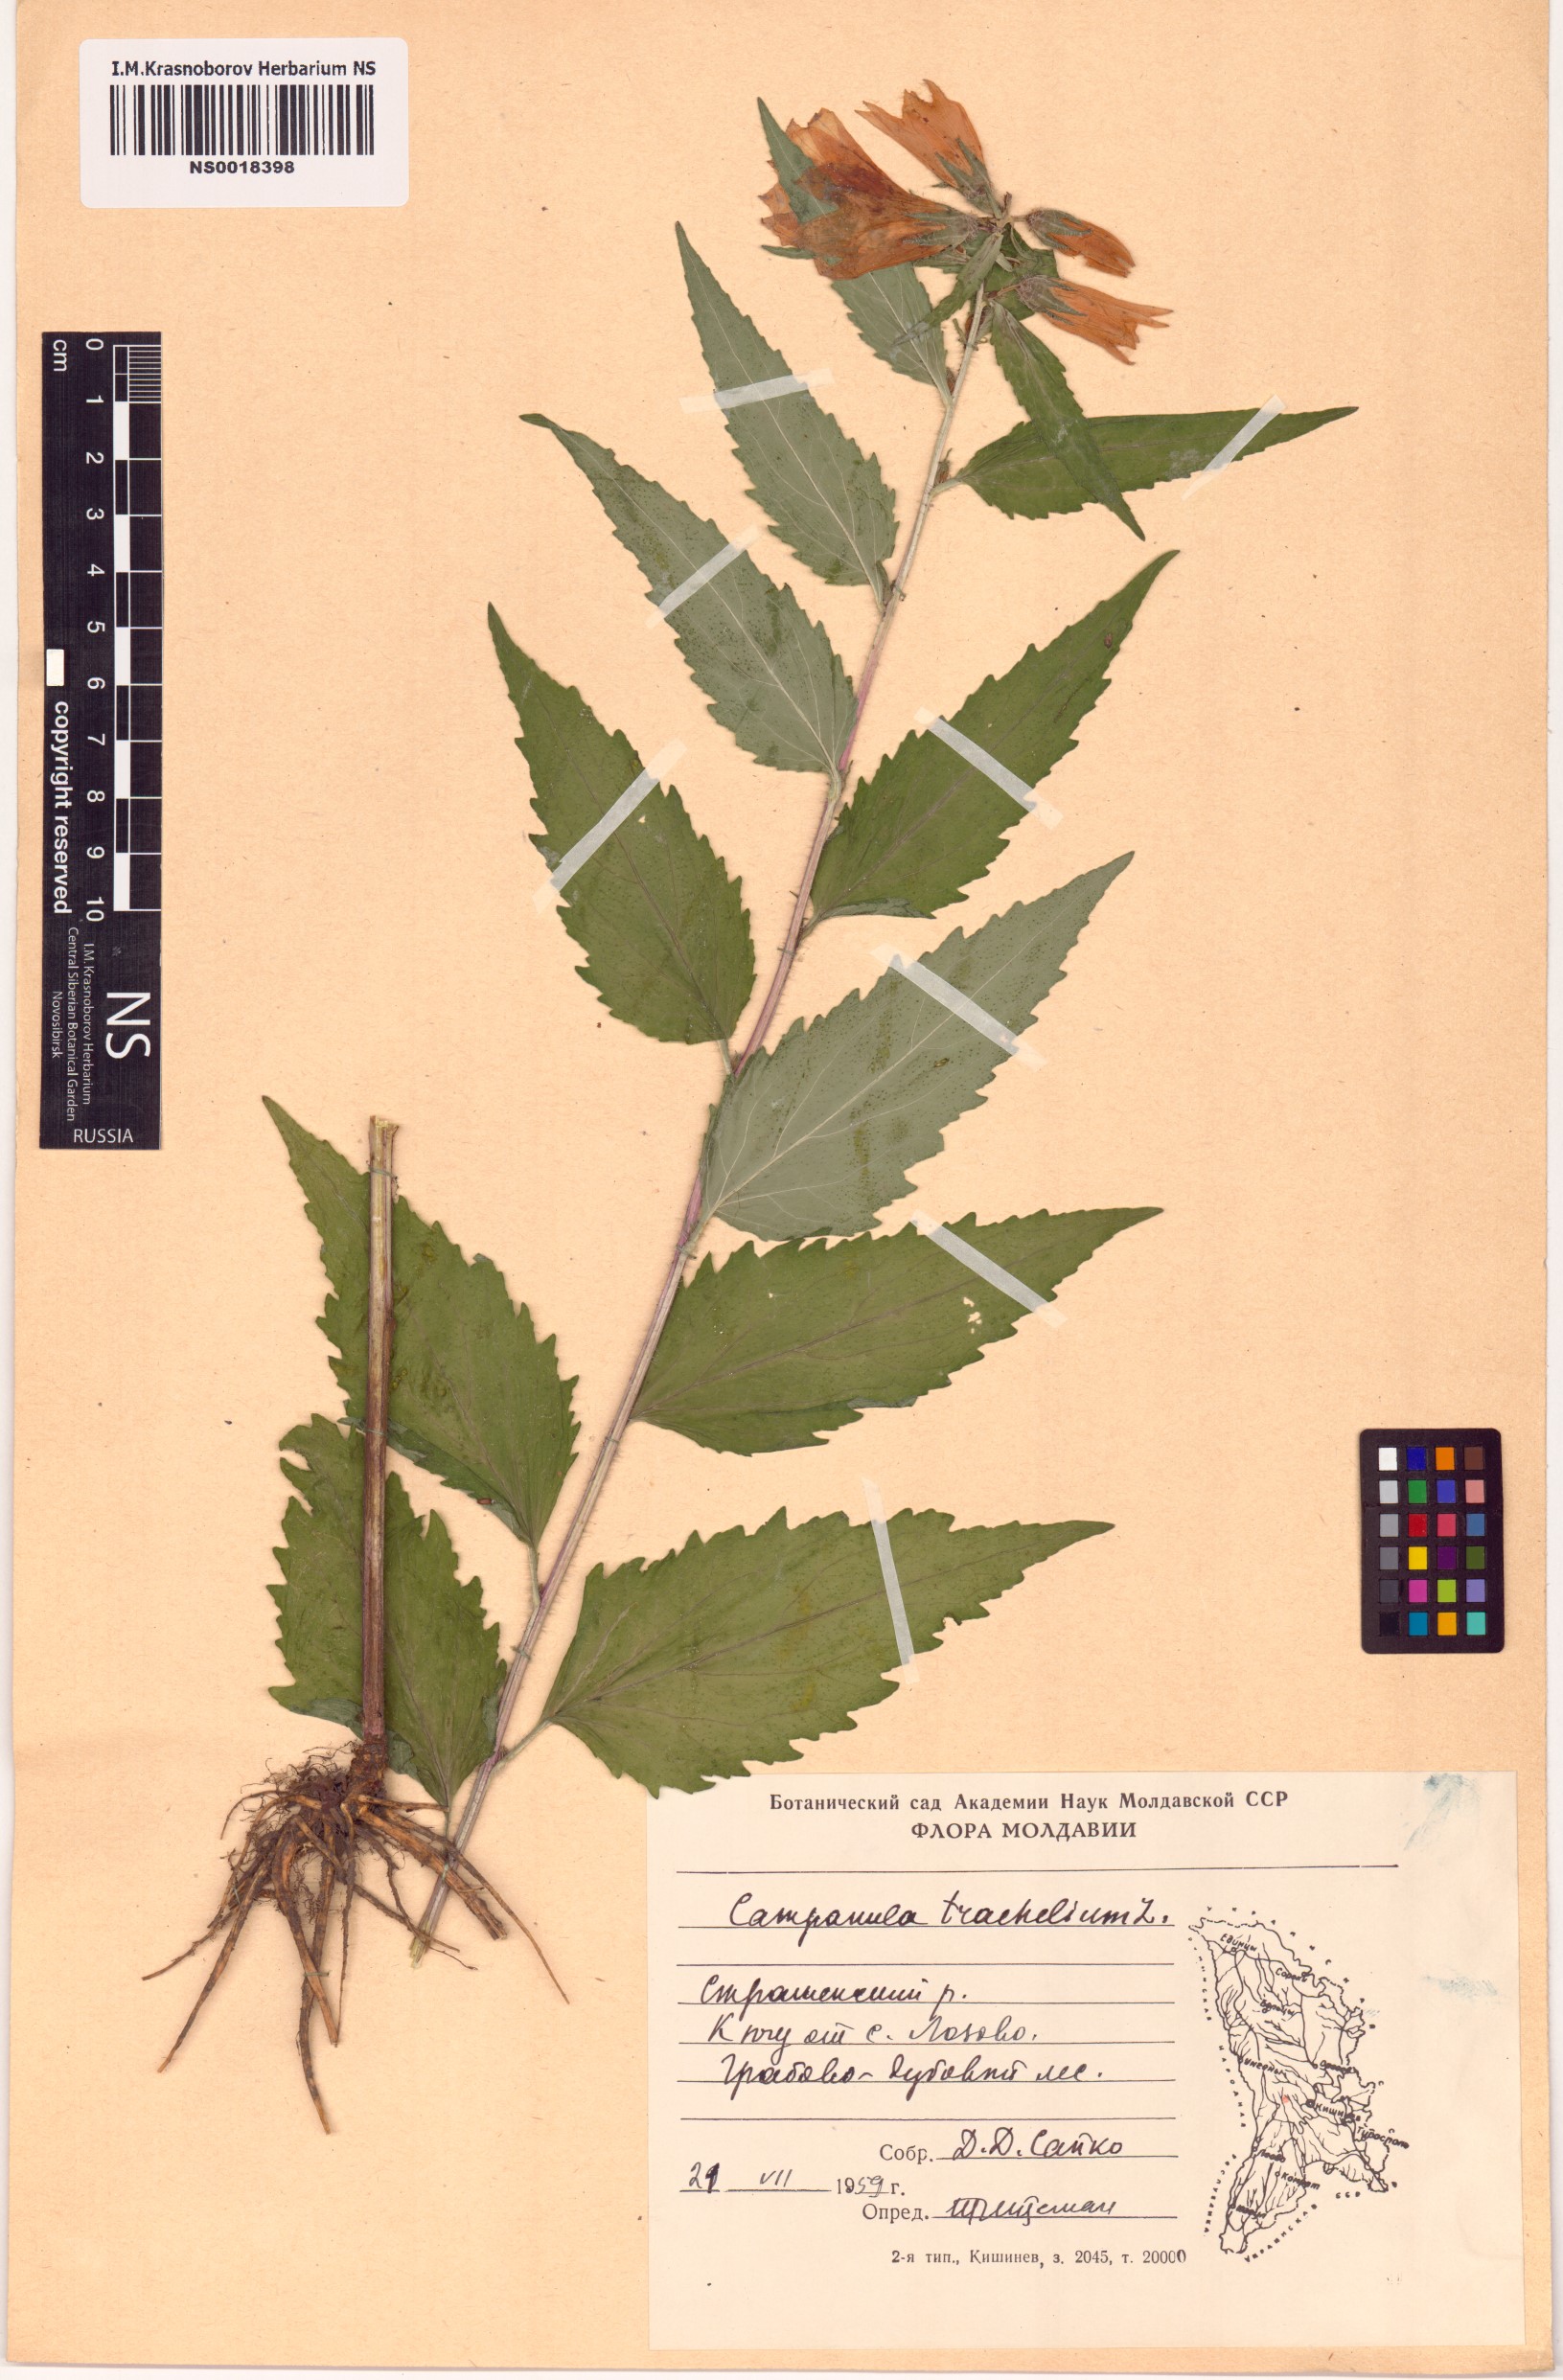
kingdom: Plantae
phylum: Tracheophyta
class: Magnoliopsida
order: Asterales
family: Campanulaceae
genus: Campanula
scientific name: Campanula trachelium
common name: Nettle-leaved bellflower
